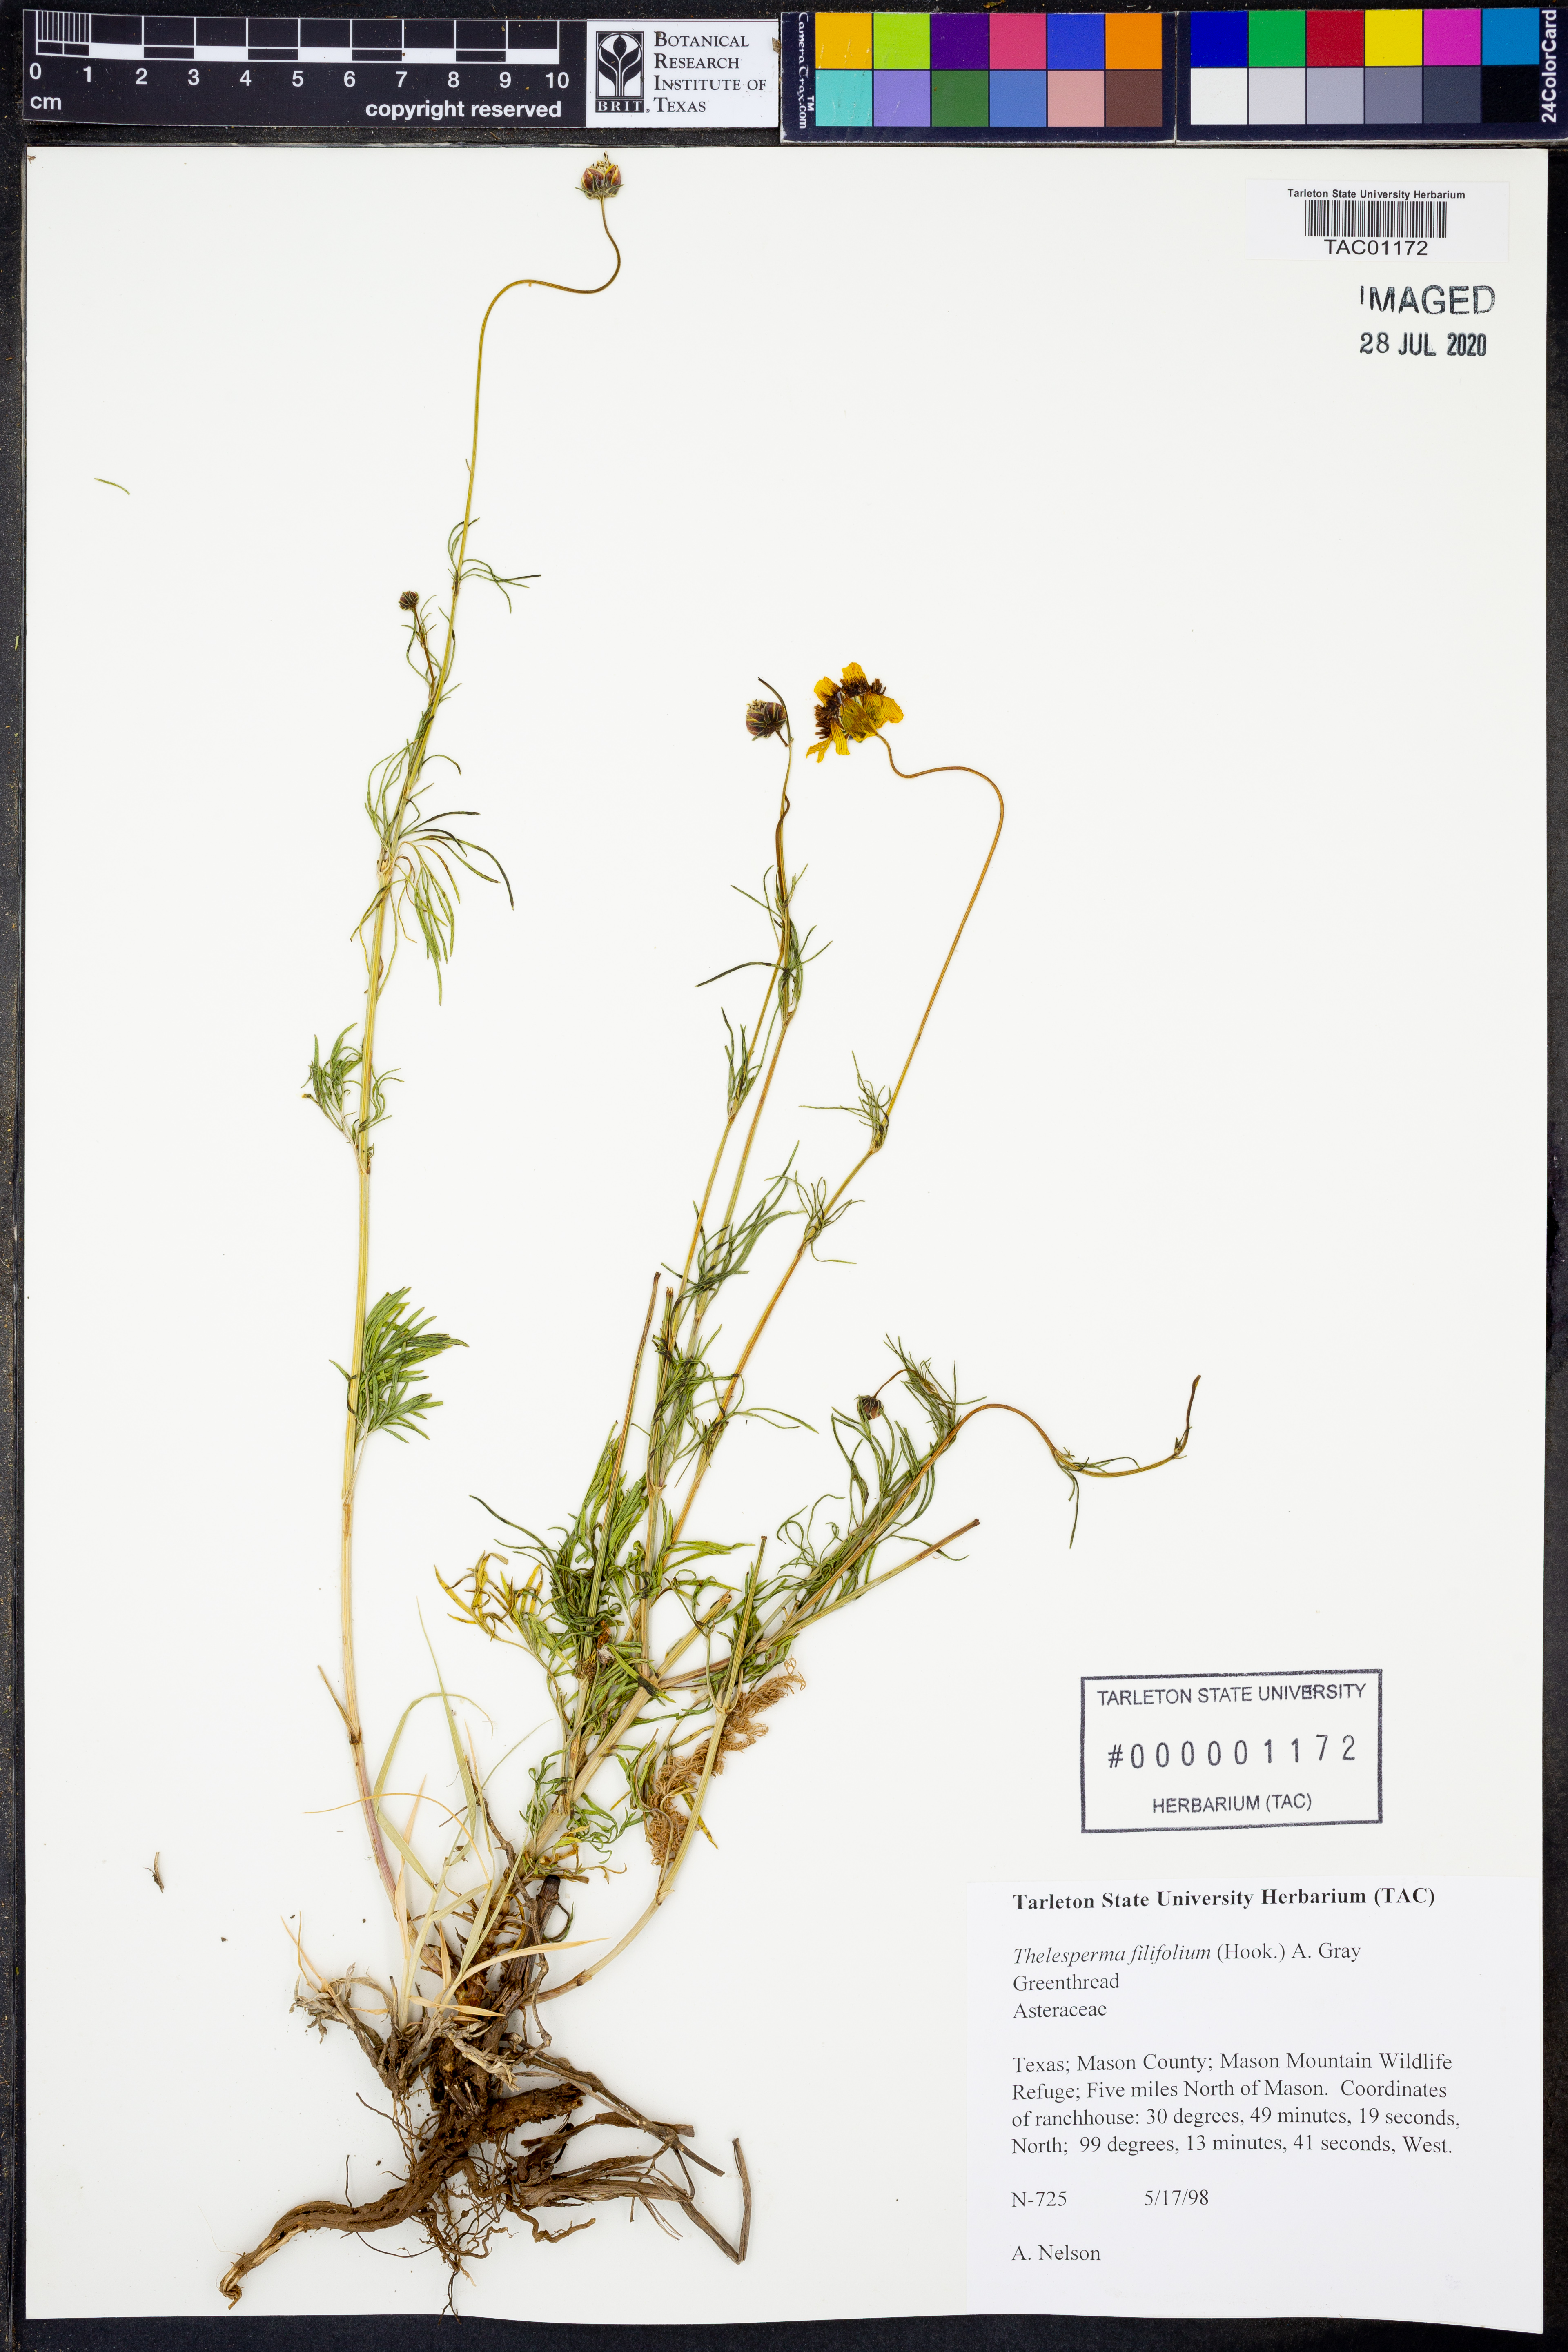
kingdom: Plantae
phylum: Tracheophyta
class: Magnoliopsida
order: Asterales
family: Asteraceae
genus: Thelesperma
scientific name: Thelesperma filifolium
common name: Stiff greenthread
